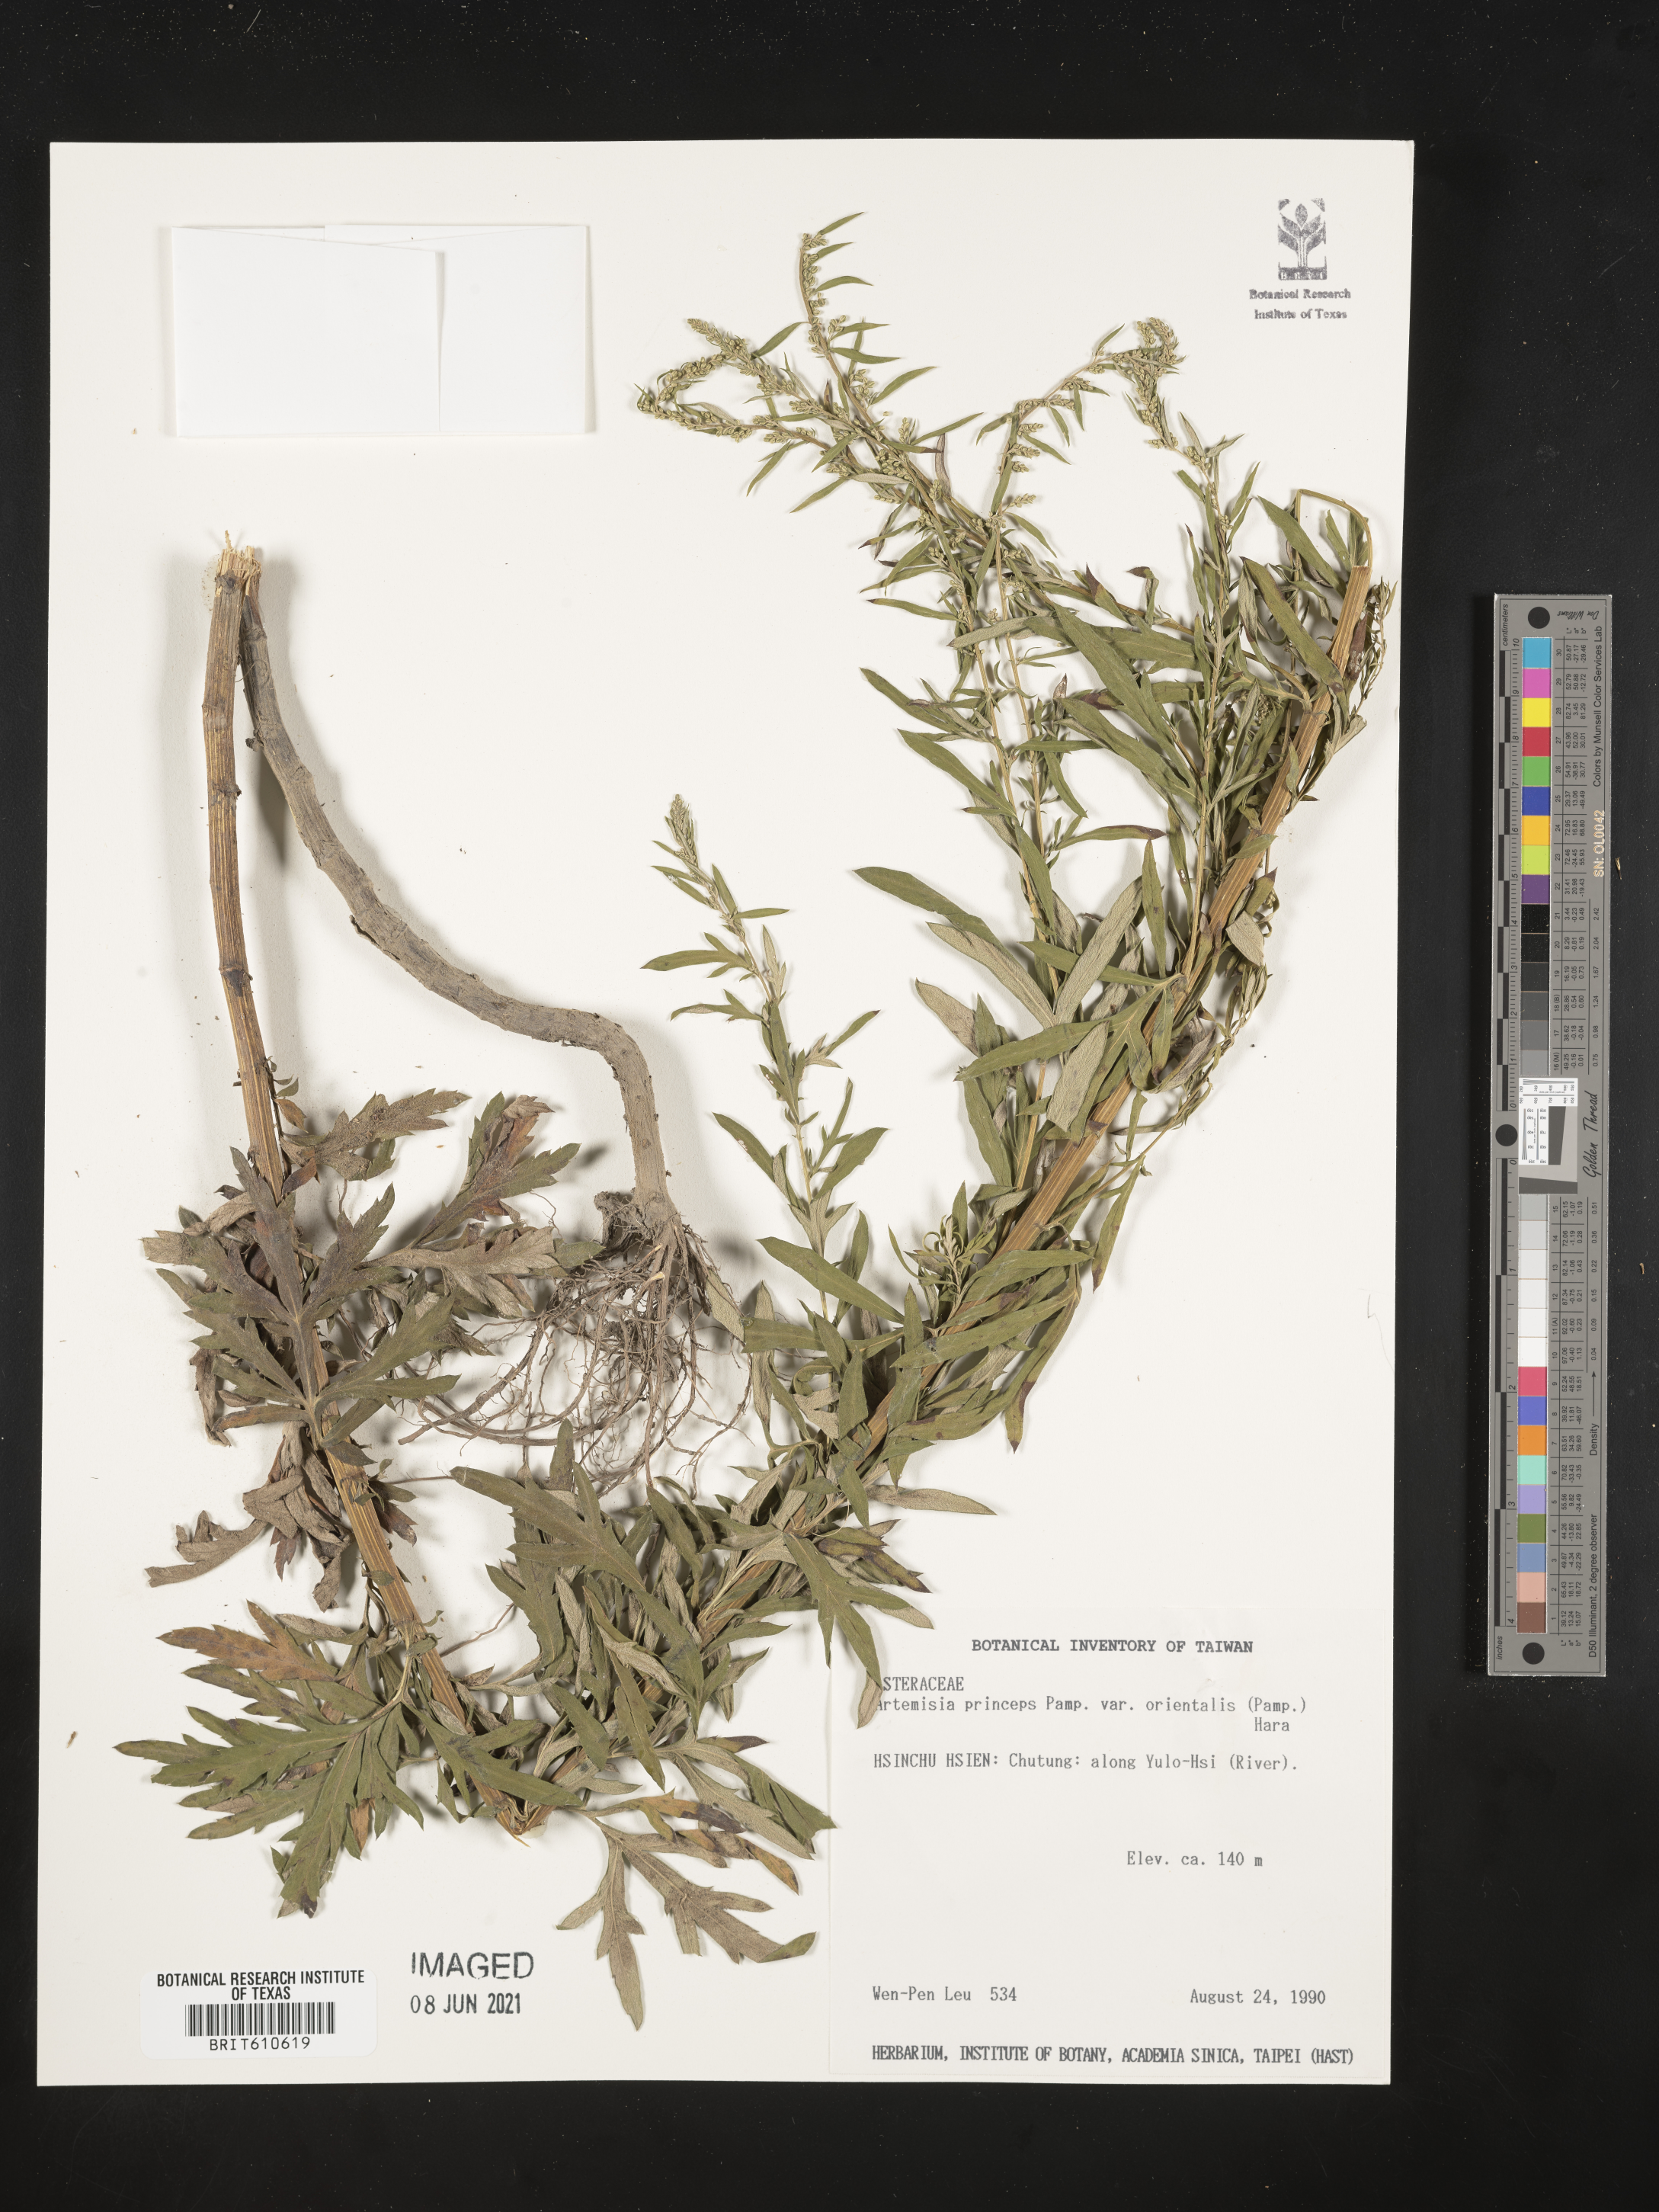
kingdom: Plantae
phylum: Tracheophyta
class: Magnoliopsida
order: Asterales
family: Asteraceae
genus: Artemisia
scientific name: Artemisia princeps
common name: Japanese mugwort
